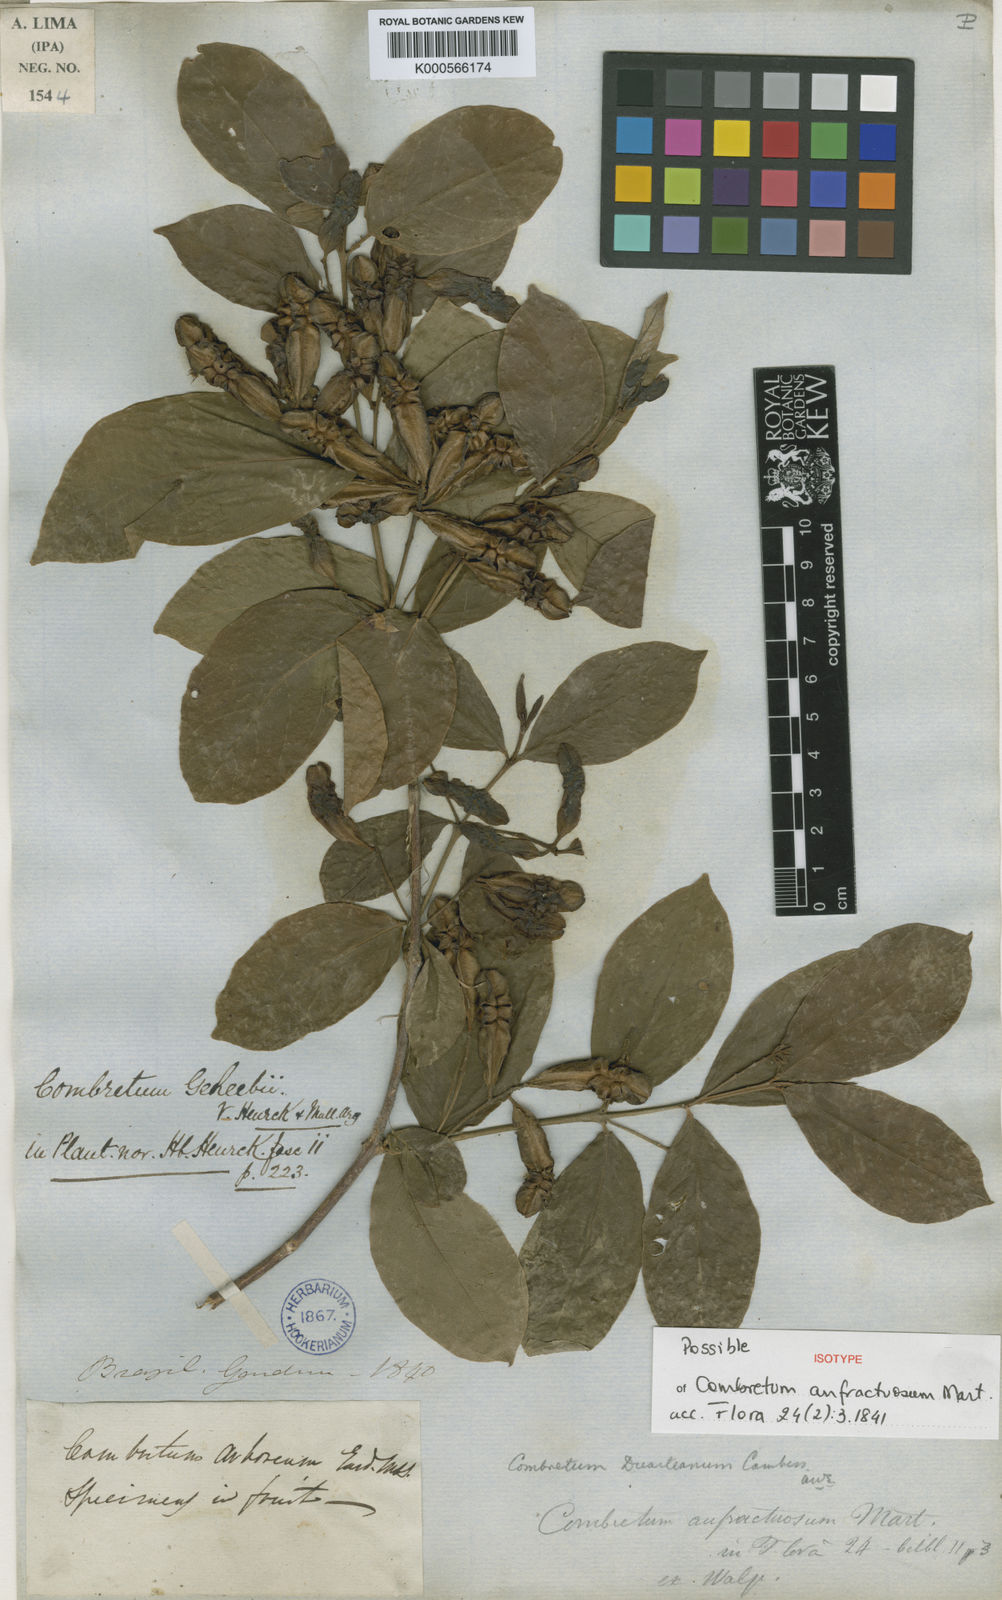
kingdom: Plantae
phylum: Tracheophyta
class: Magnoliopsida
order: Myrtales
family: Combretaceae
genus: Combretum
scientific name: Combretum duarteanum
